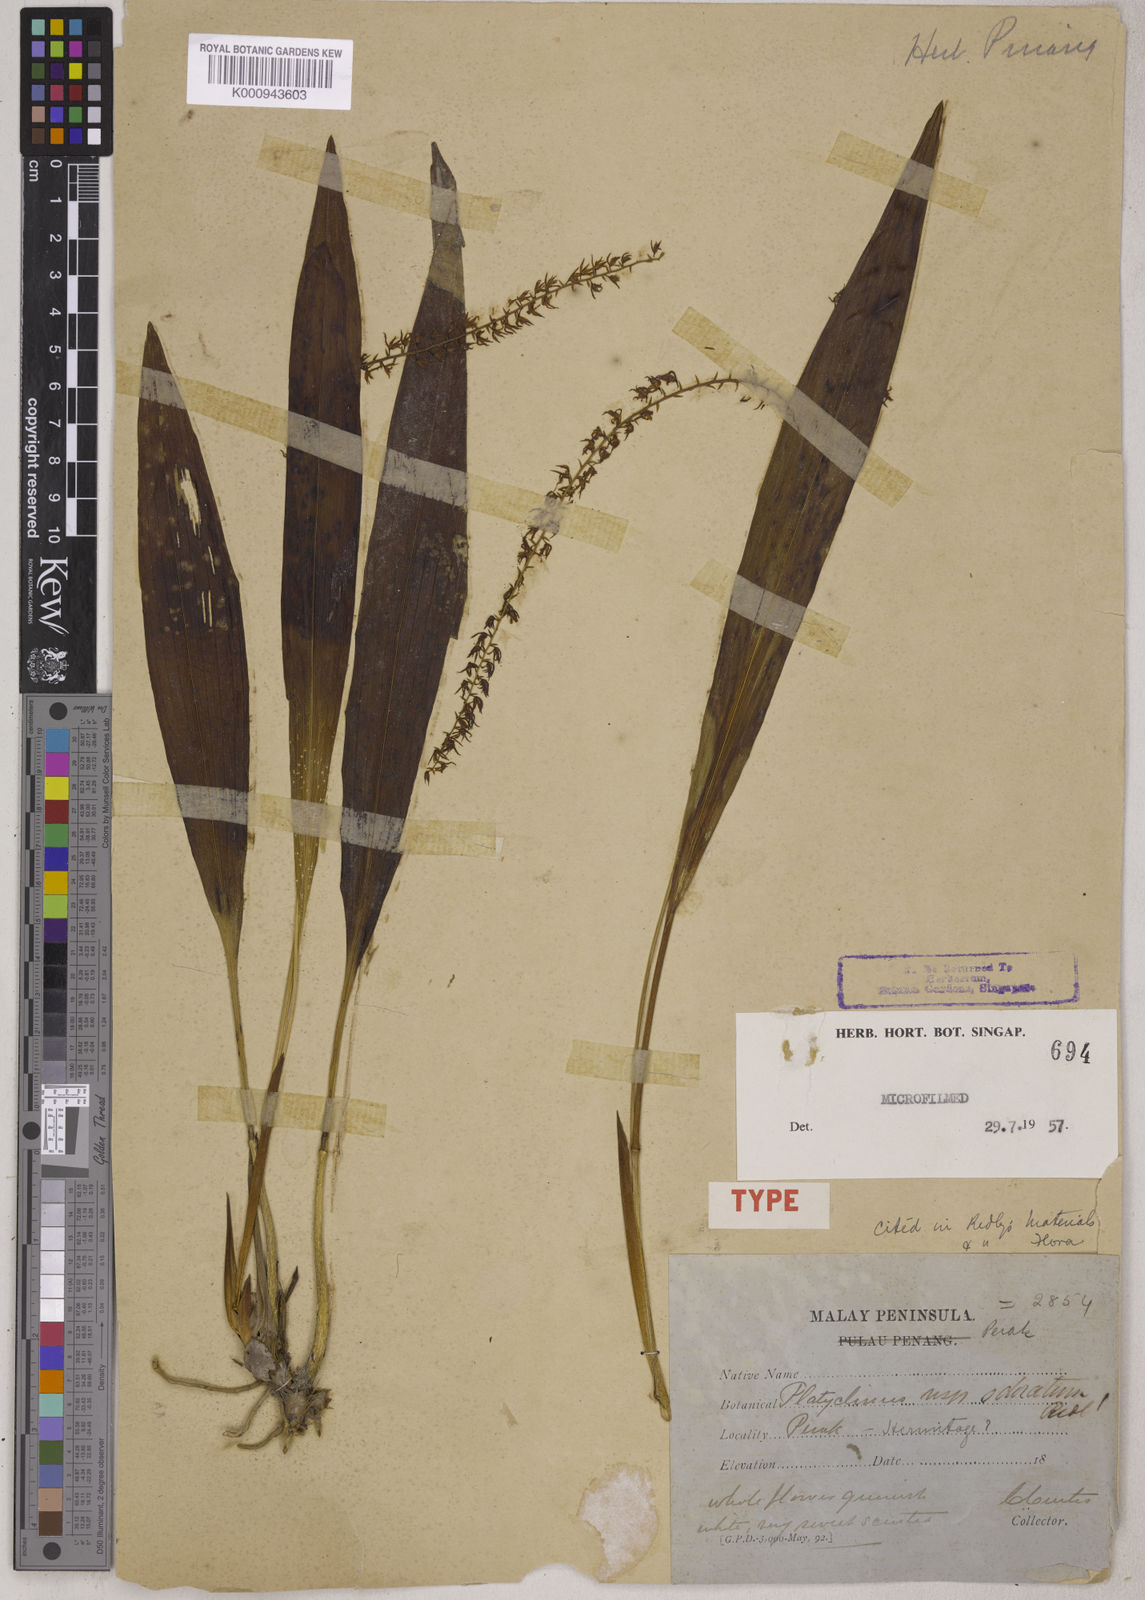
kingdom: Plantae
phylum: Tracheophyta
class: Liliopsida
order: Asparagales
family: Orchidaceae
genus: Coelogyne
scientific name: Coelogyne odorata
